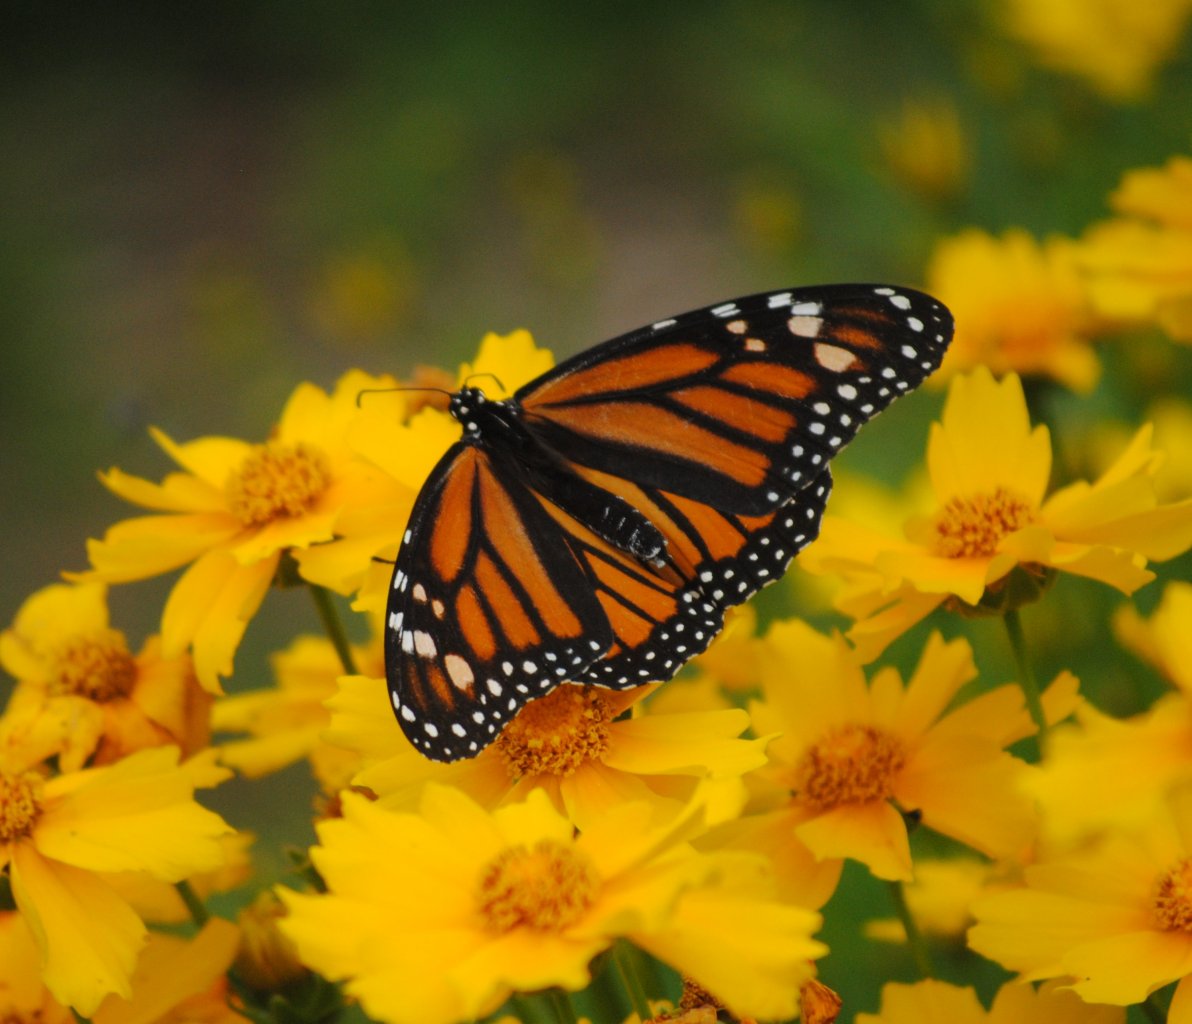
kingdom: Animalia
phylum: Arthropoda
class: Insecta
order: Lepidoptera
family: Nymphalidae
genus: Danaus
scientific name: Danaus plexippus
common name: Monarch
